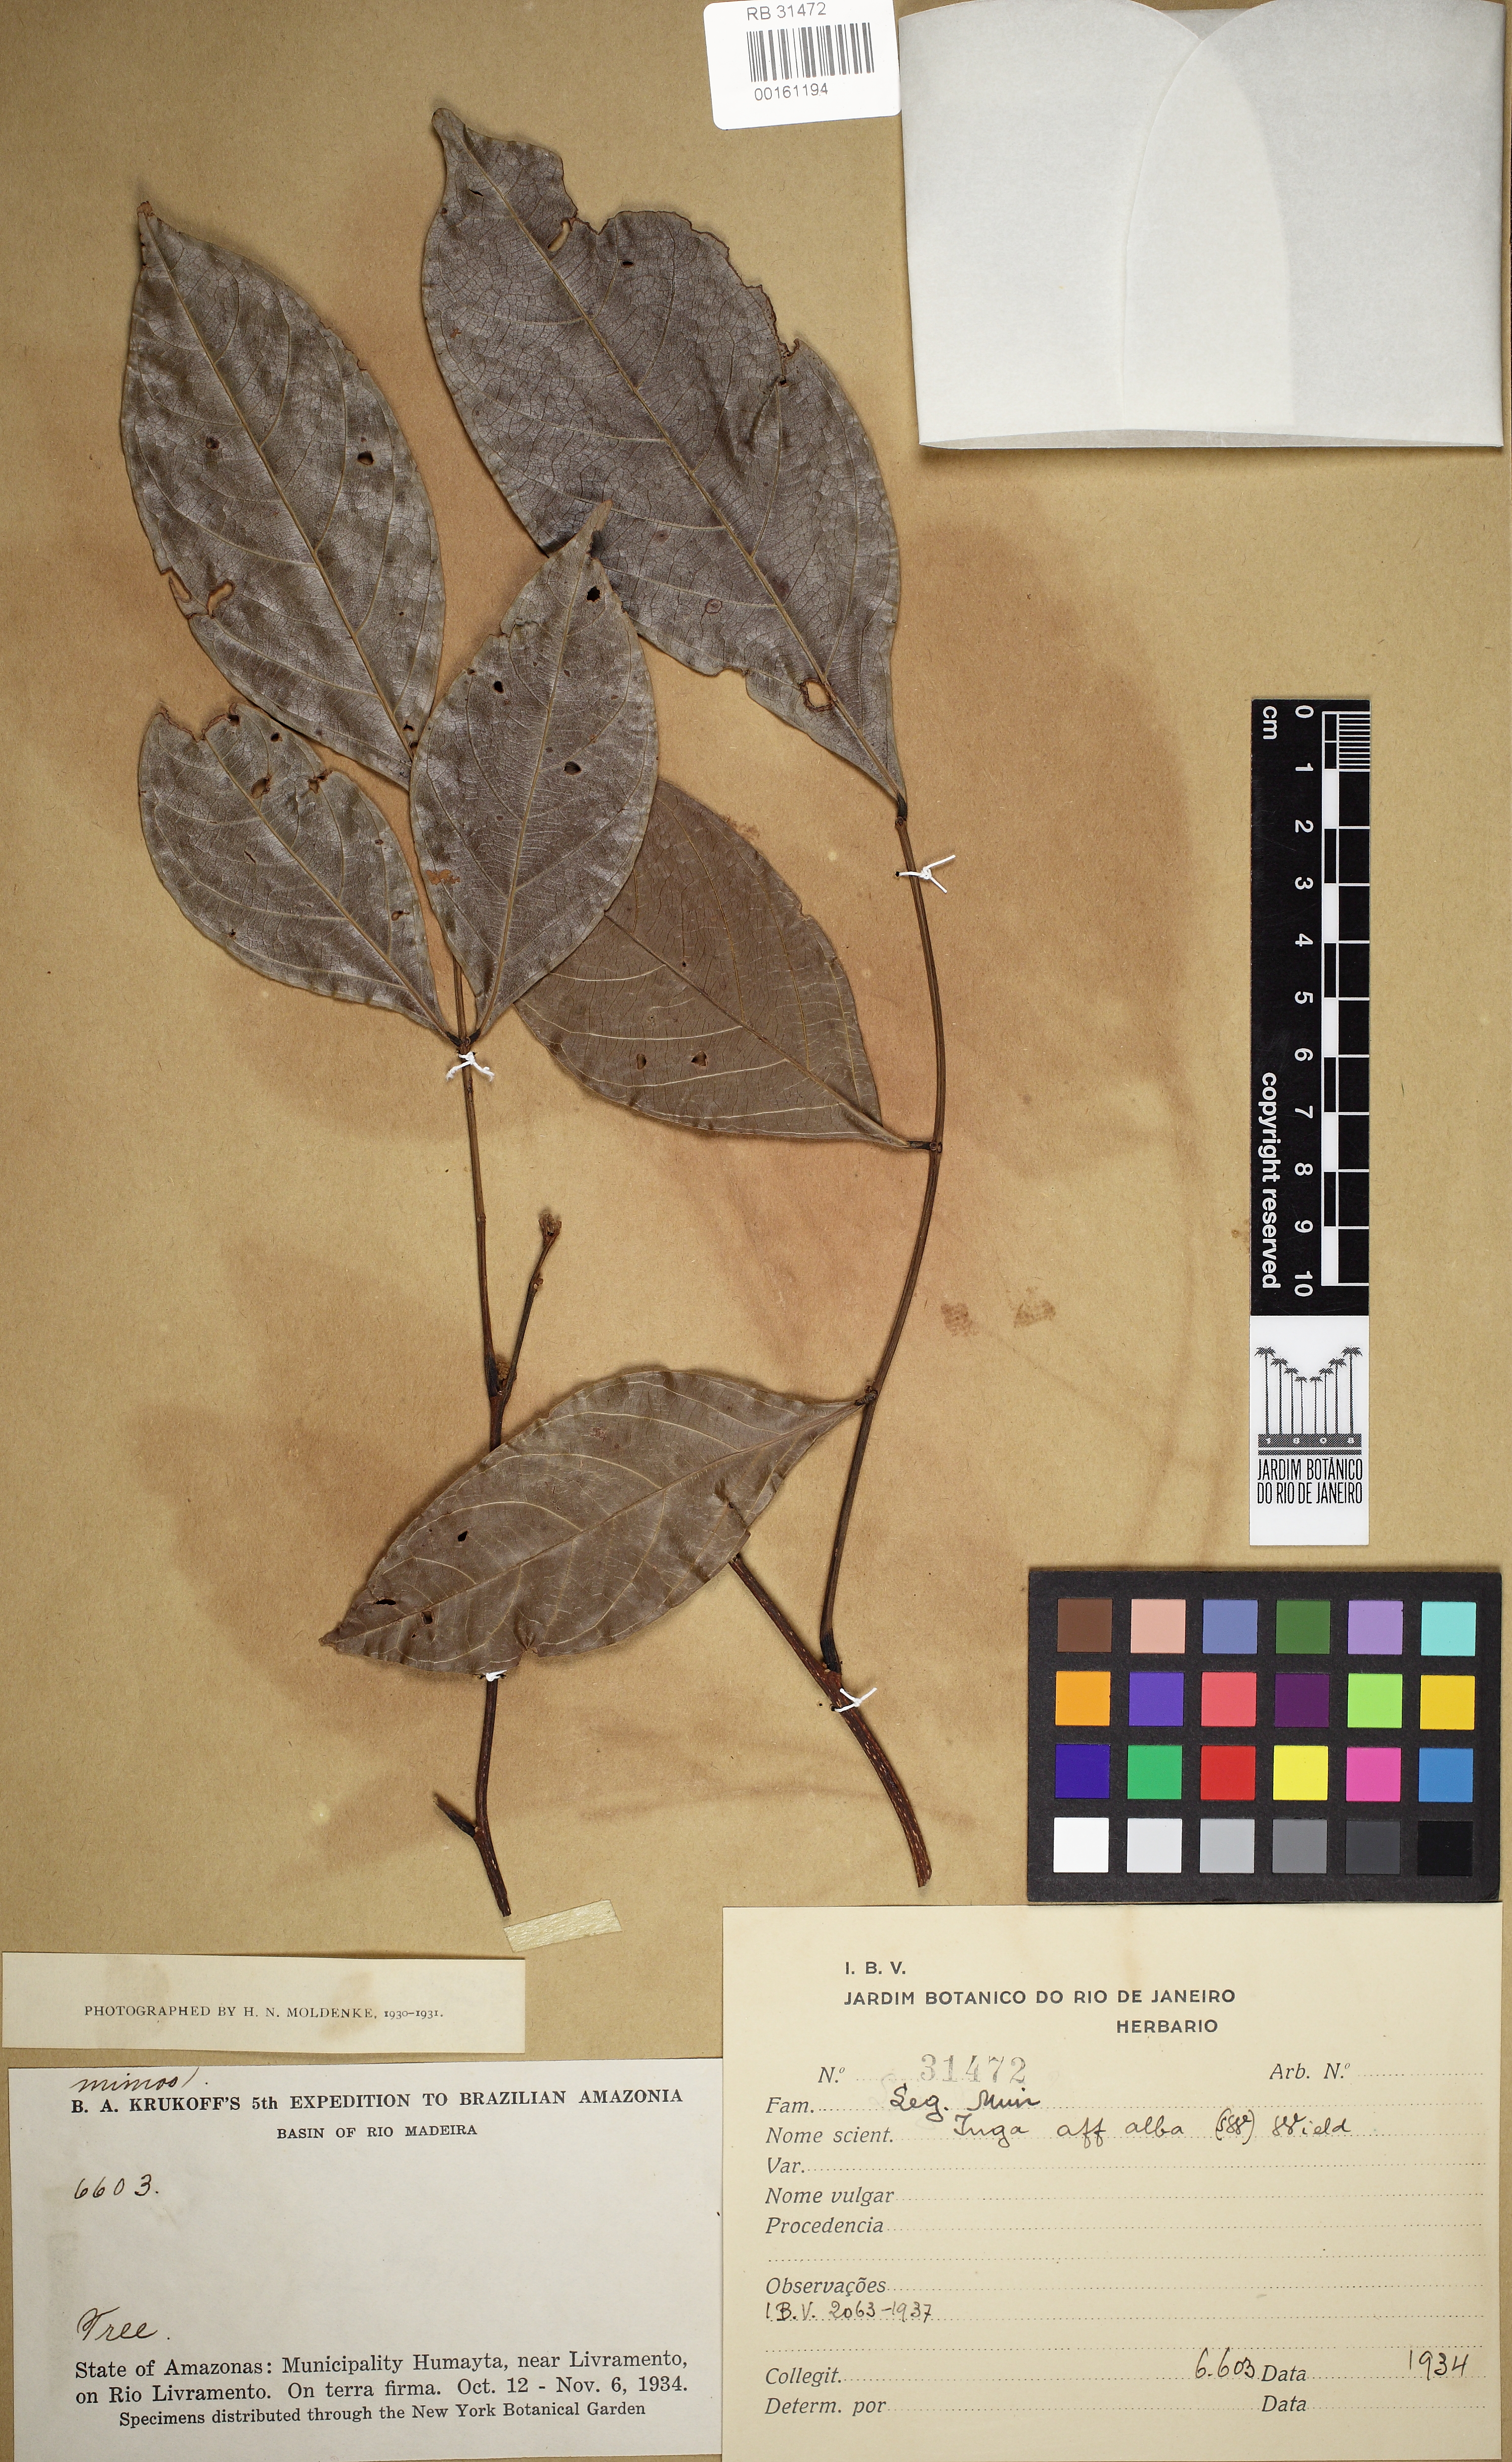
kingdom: Plantae
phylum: Tracheophyta
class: Magnoliopsida
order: Fabales
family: Fabaceae
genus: Inga
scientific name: Inga alba
